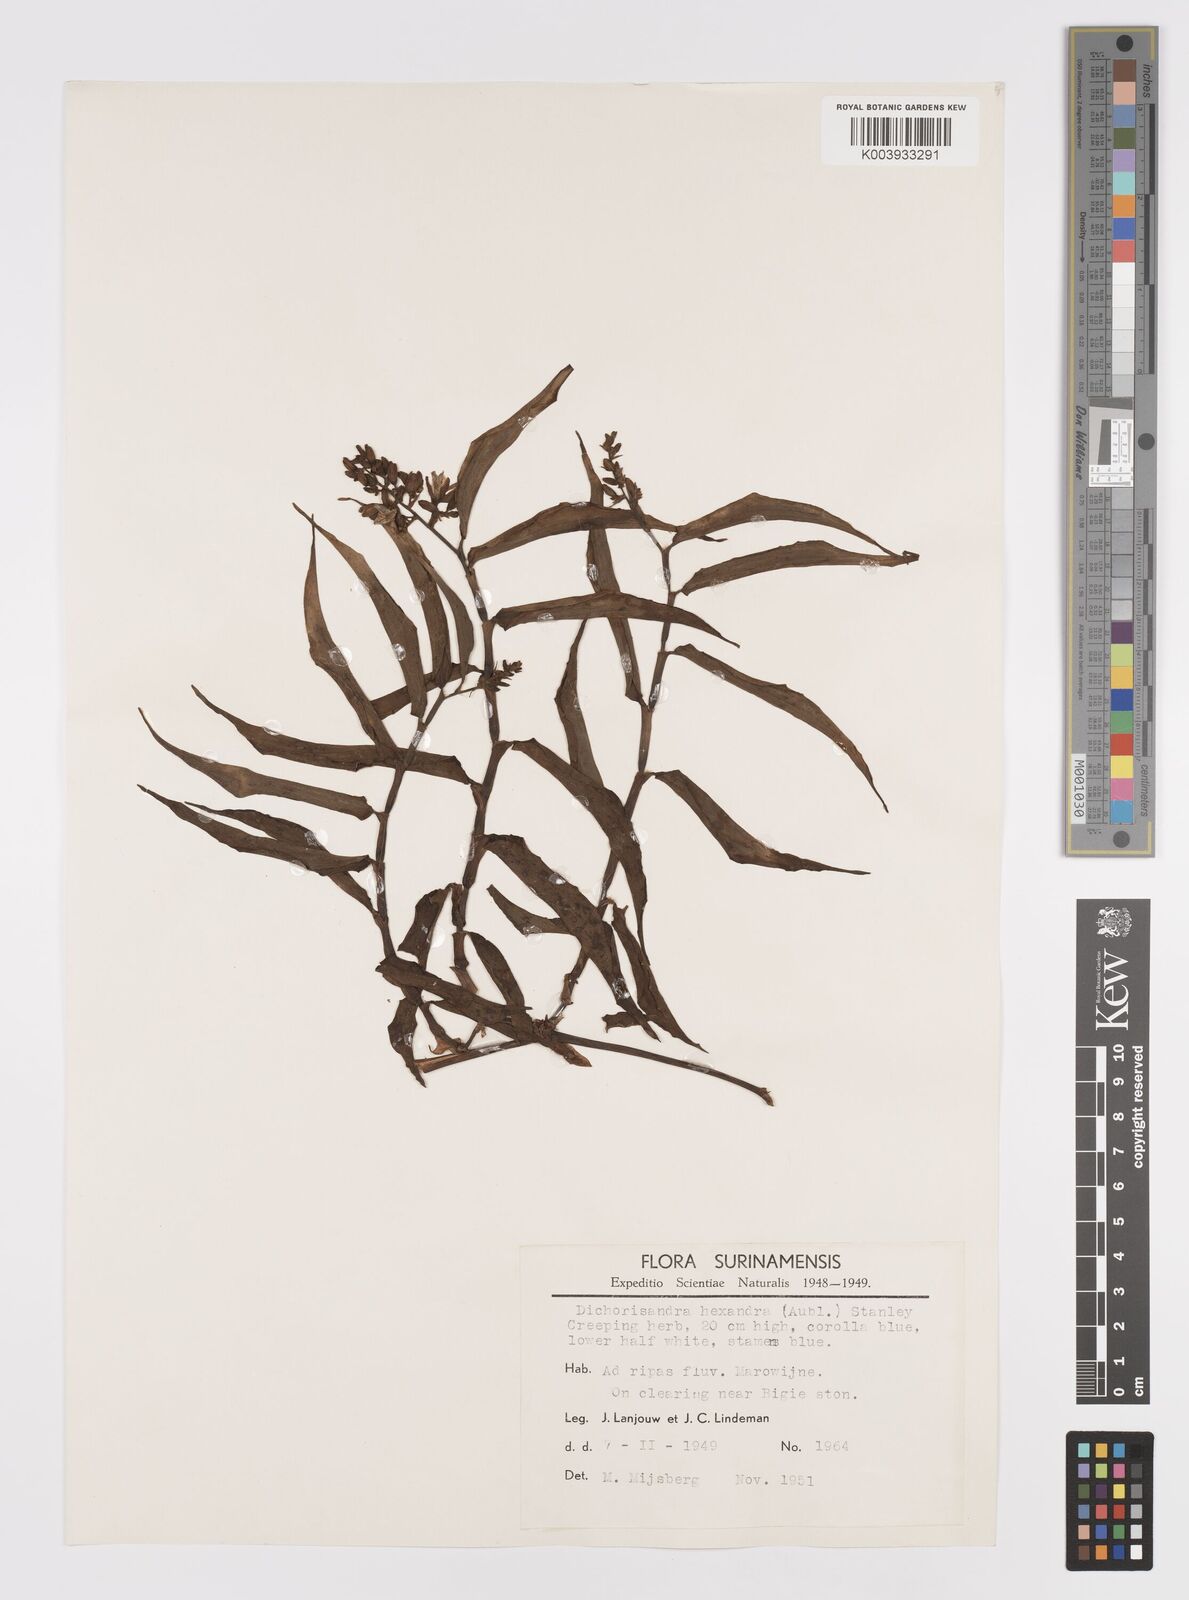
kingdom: Plantae
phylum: Tracheophyta
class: Liliopsida
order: Commelinales
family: Commelinaceae
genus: Dichorisandra
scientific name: Dichorisandra hexandra
